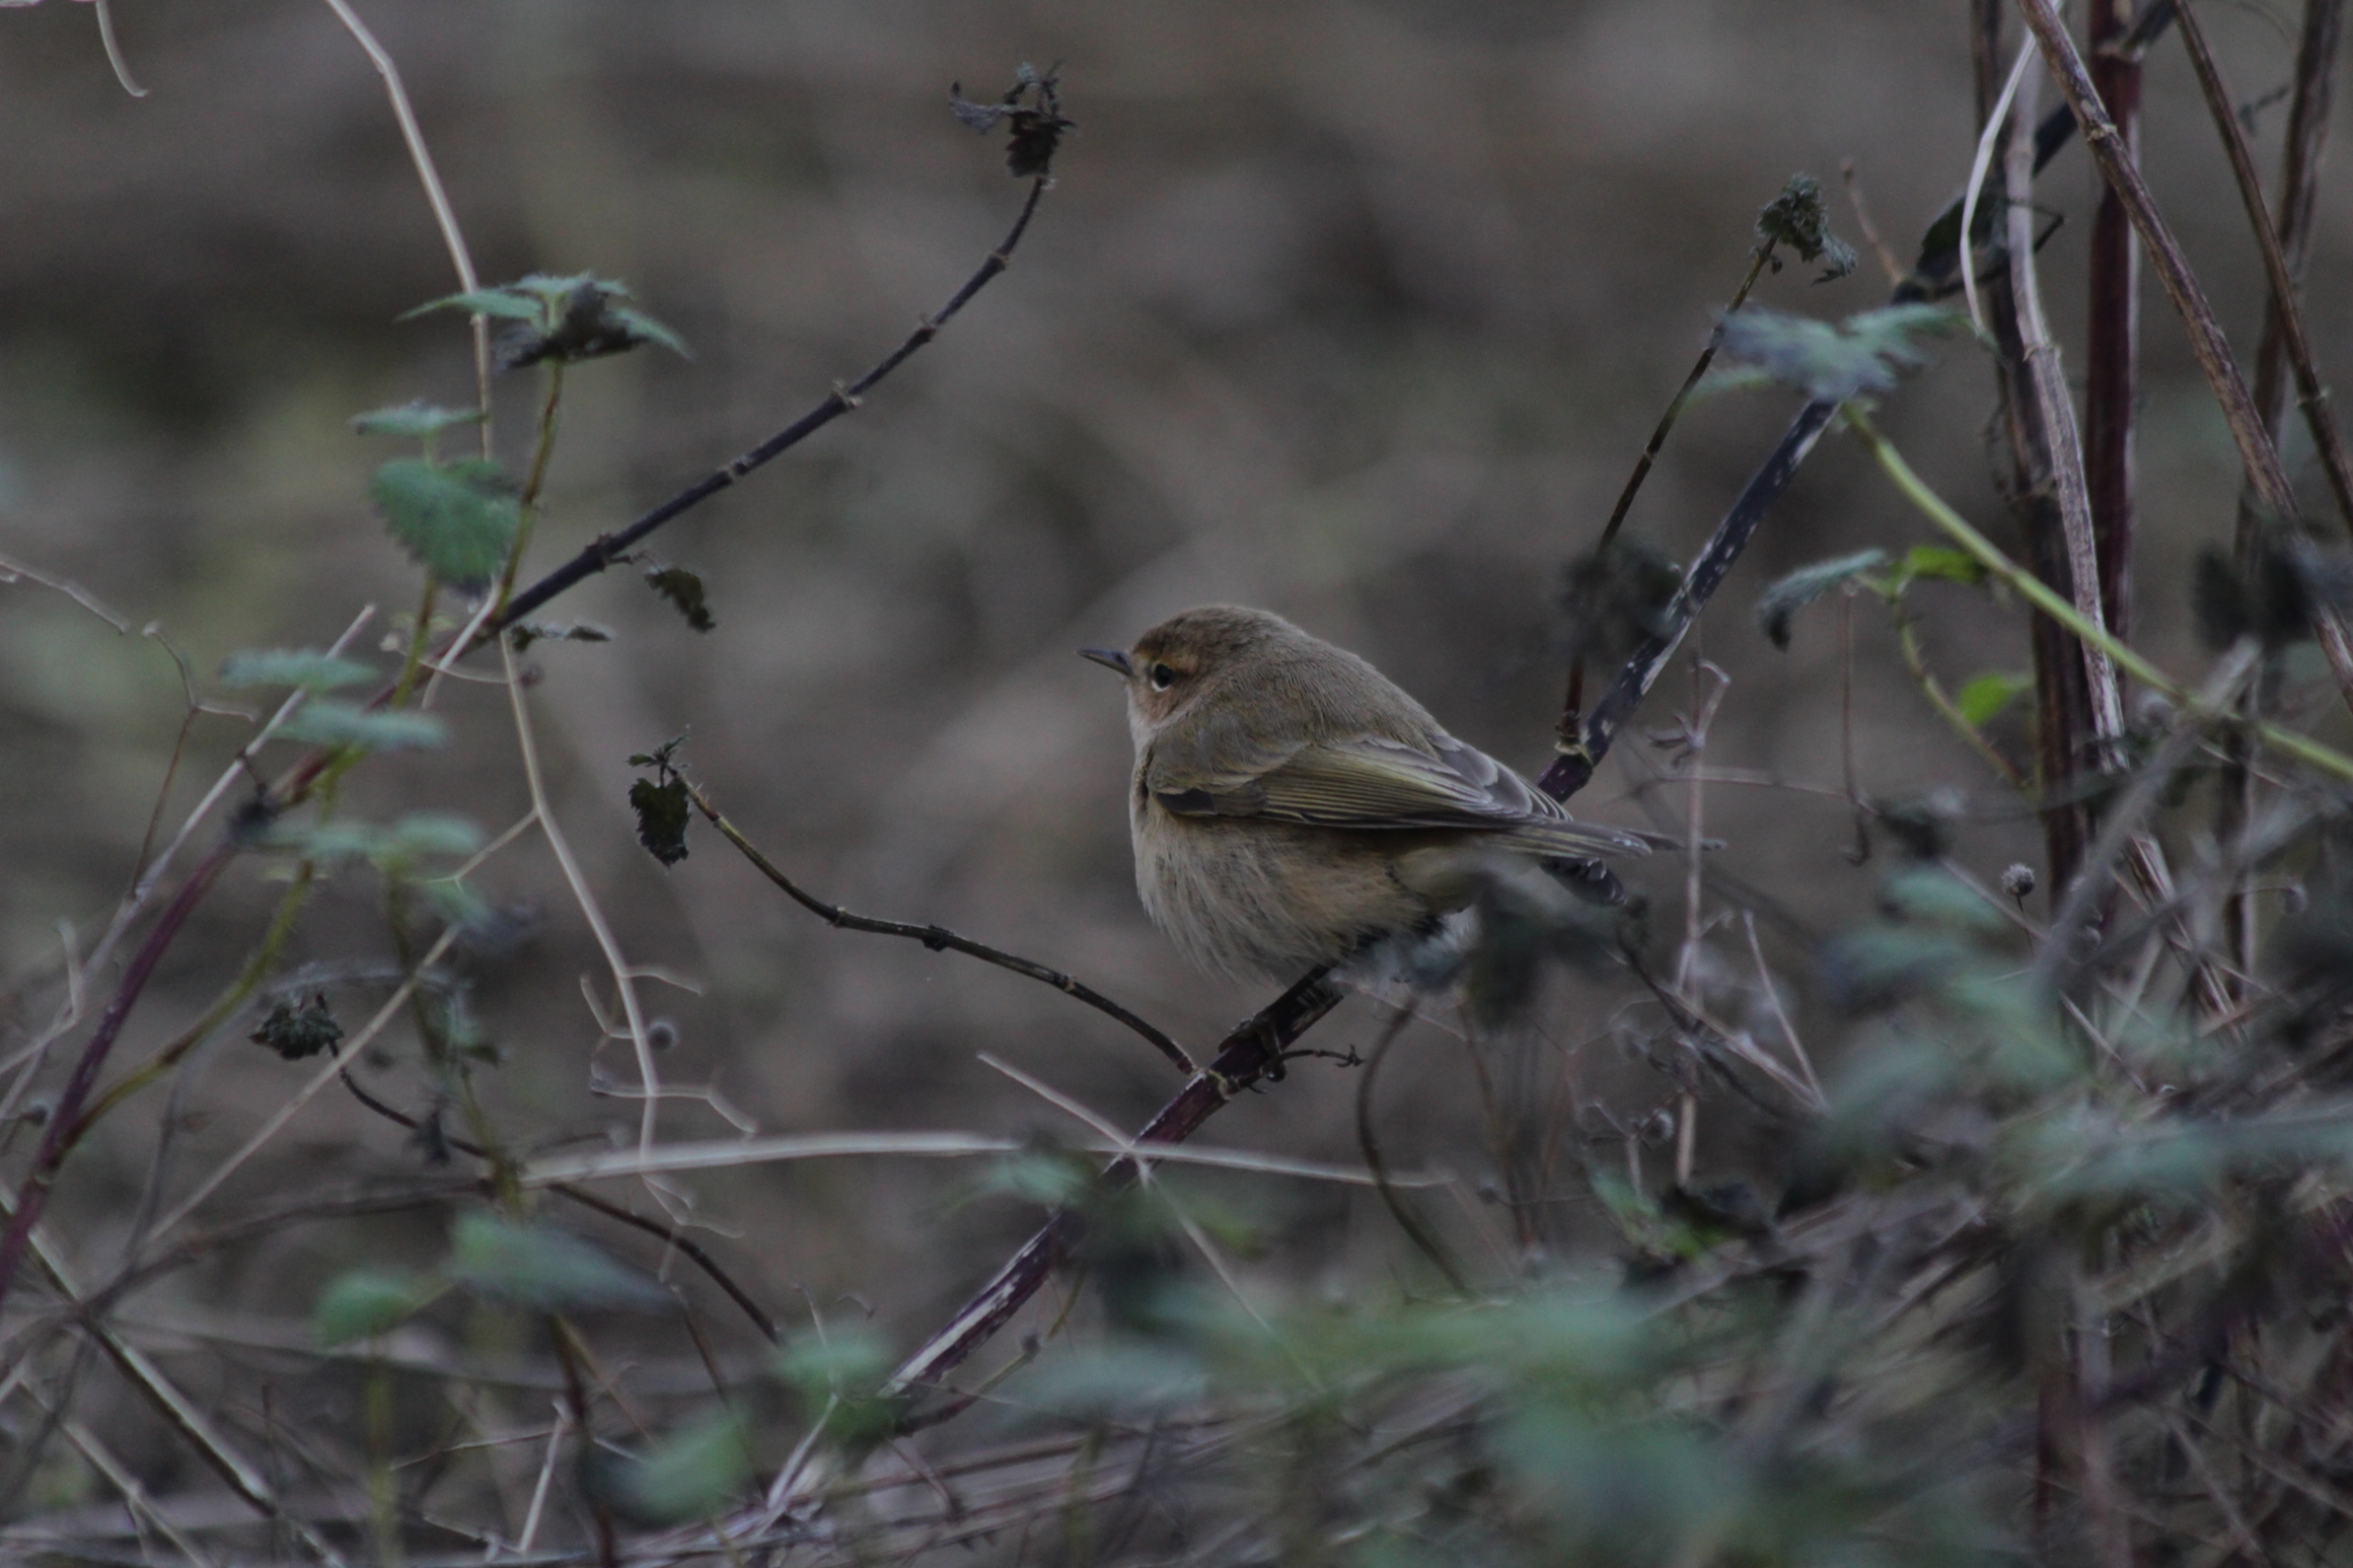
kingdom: Animalia
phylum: Chordata
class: Aves
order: Passeriformes
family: Phylloscopidae
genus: Phylloscopus
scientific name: Phylloscopus collybita
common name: Gransanger
